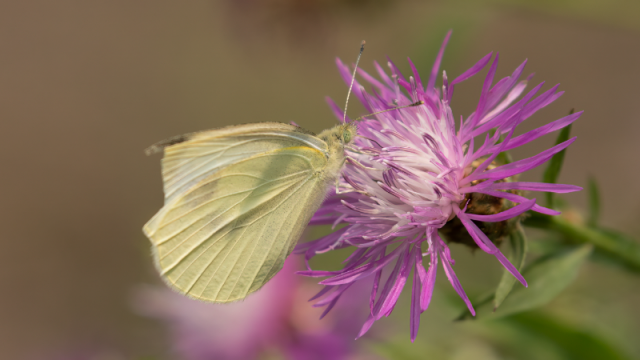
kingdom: Animalia
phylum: Arthropoda
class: Insecta
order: Lepidoptera
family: Pieridae
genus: Pieris
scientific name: Pieris rapae
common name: Cabbage White
